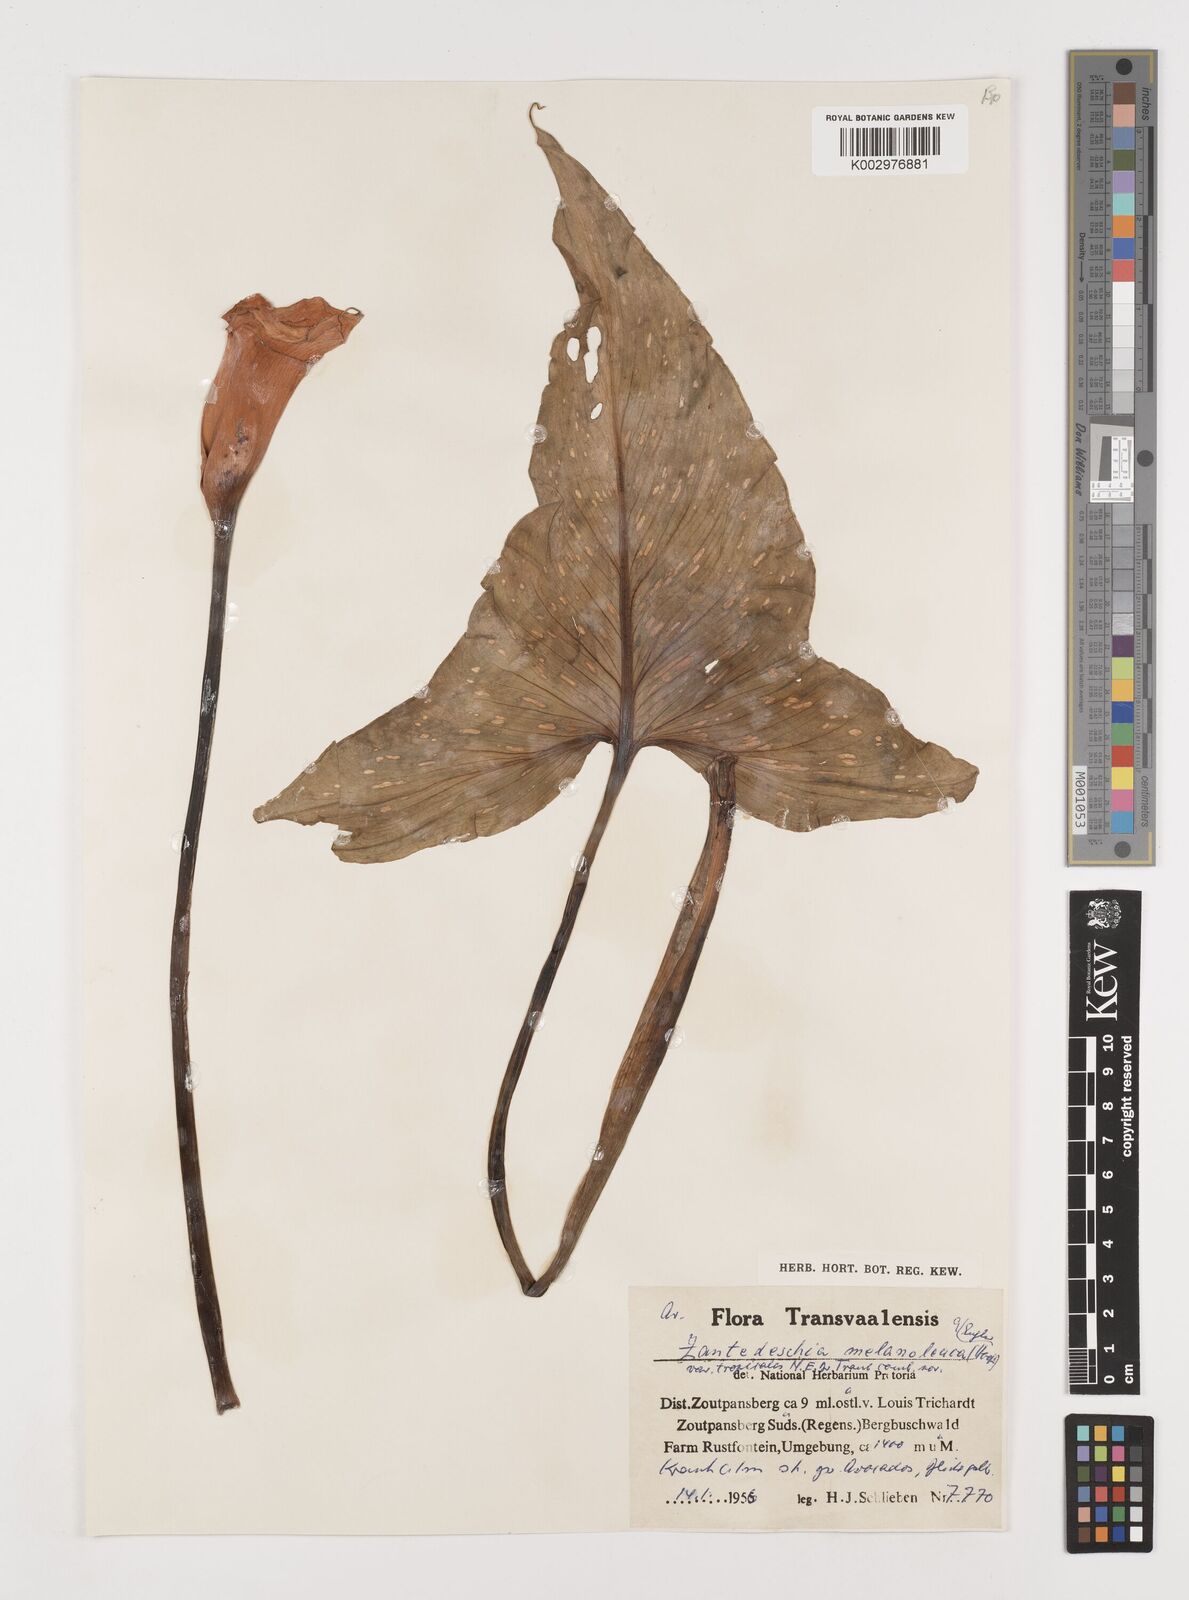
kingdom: Plantae
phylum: Tracheophyta
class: Liliopsida
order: Alismatales
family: Araceae
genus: Zantedeschia
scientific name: Zantedeschia albomaculata
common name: Spotted calla lily
